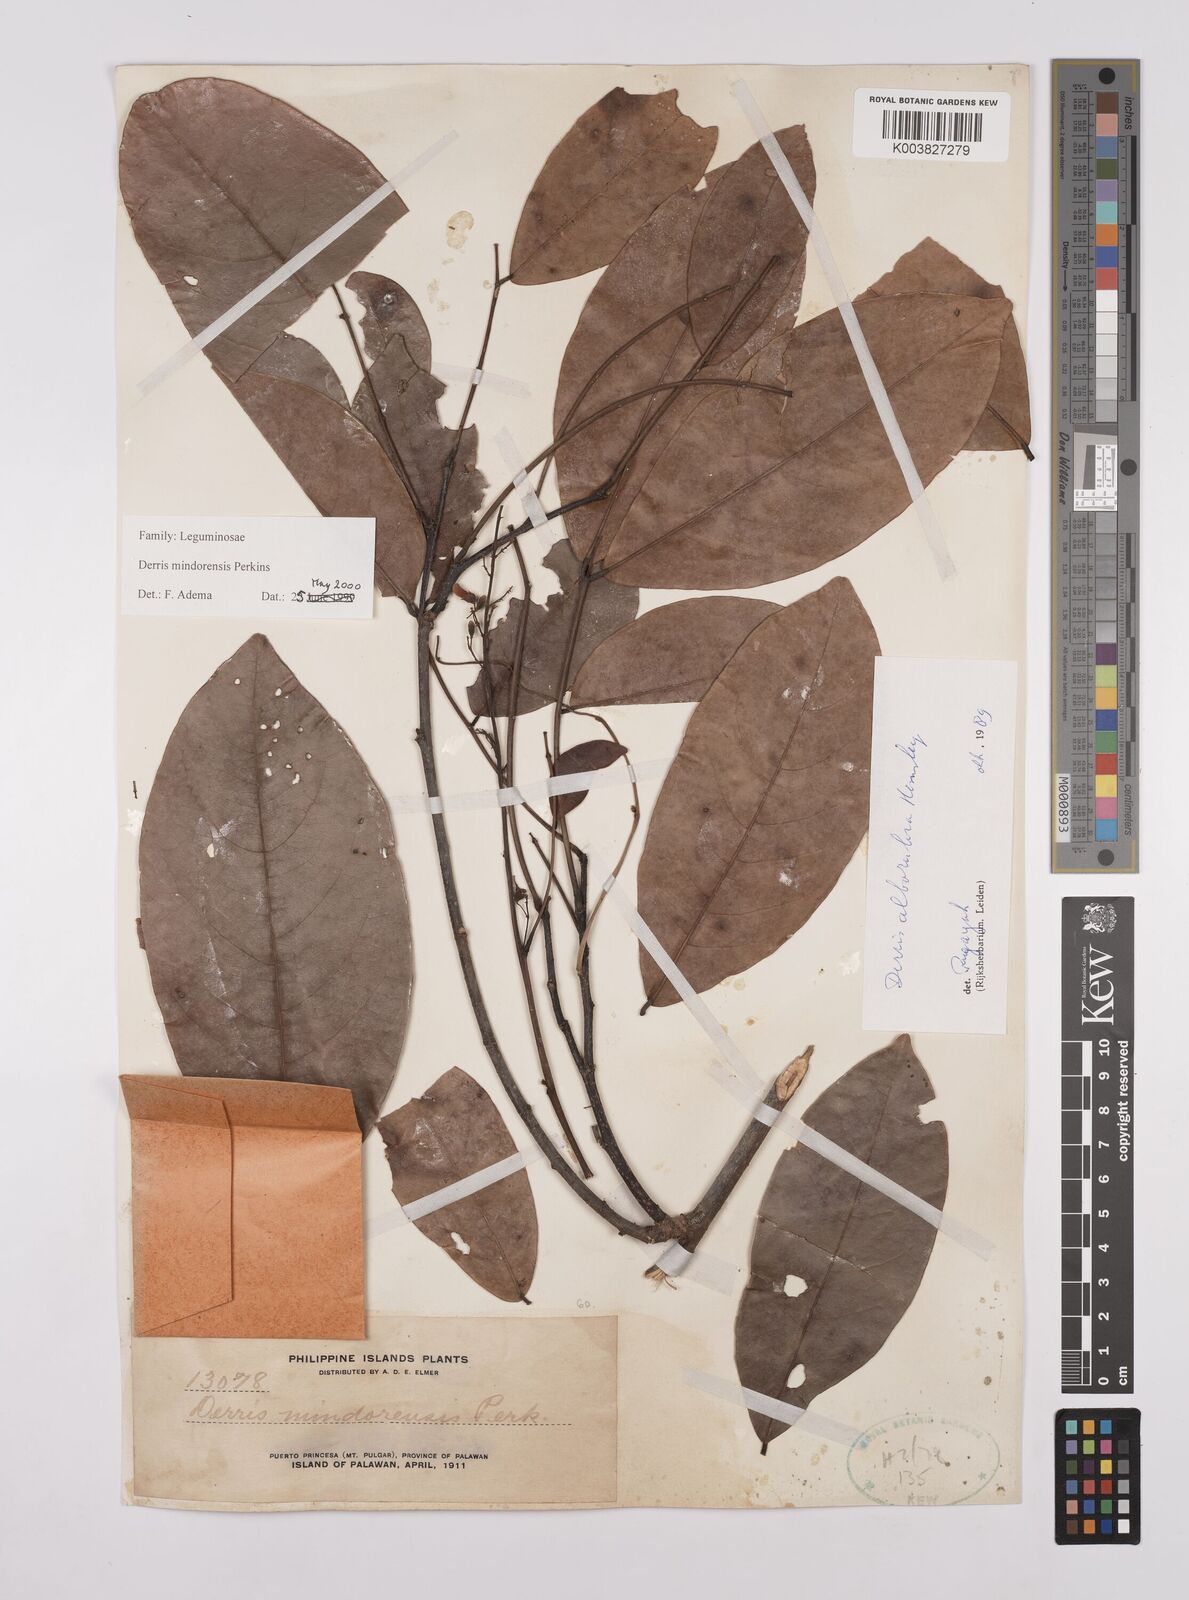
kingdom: Plantae
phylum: Tracheophyta
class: Magnoliopsida
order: Fabales
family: Fabaceae
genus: Derris
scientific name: Derris pubipetala
